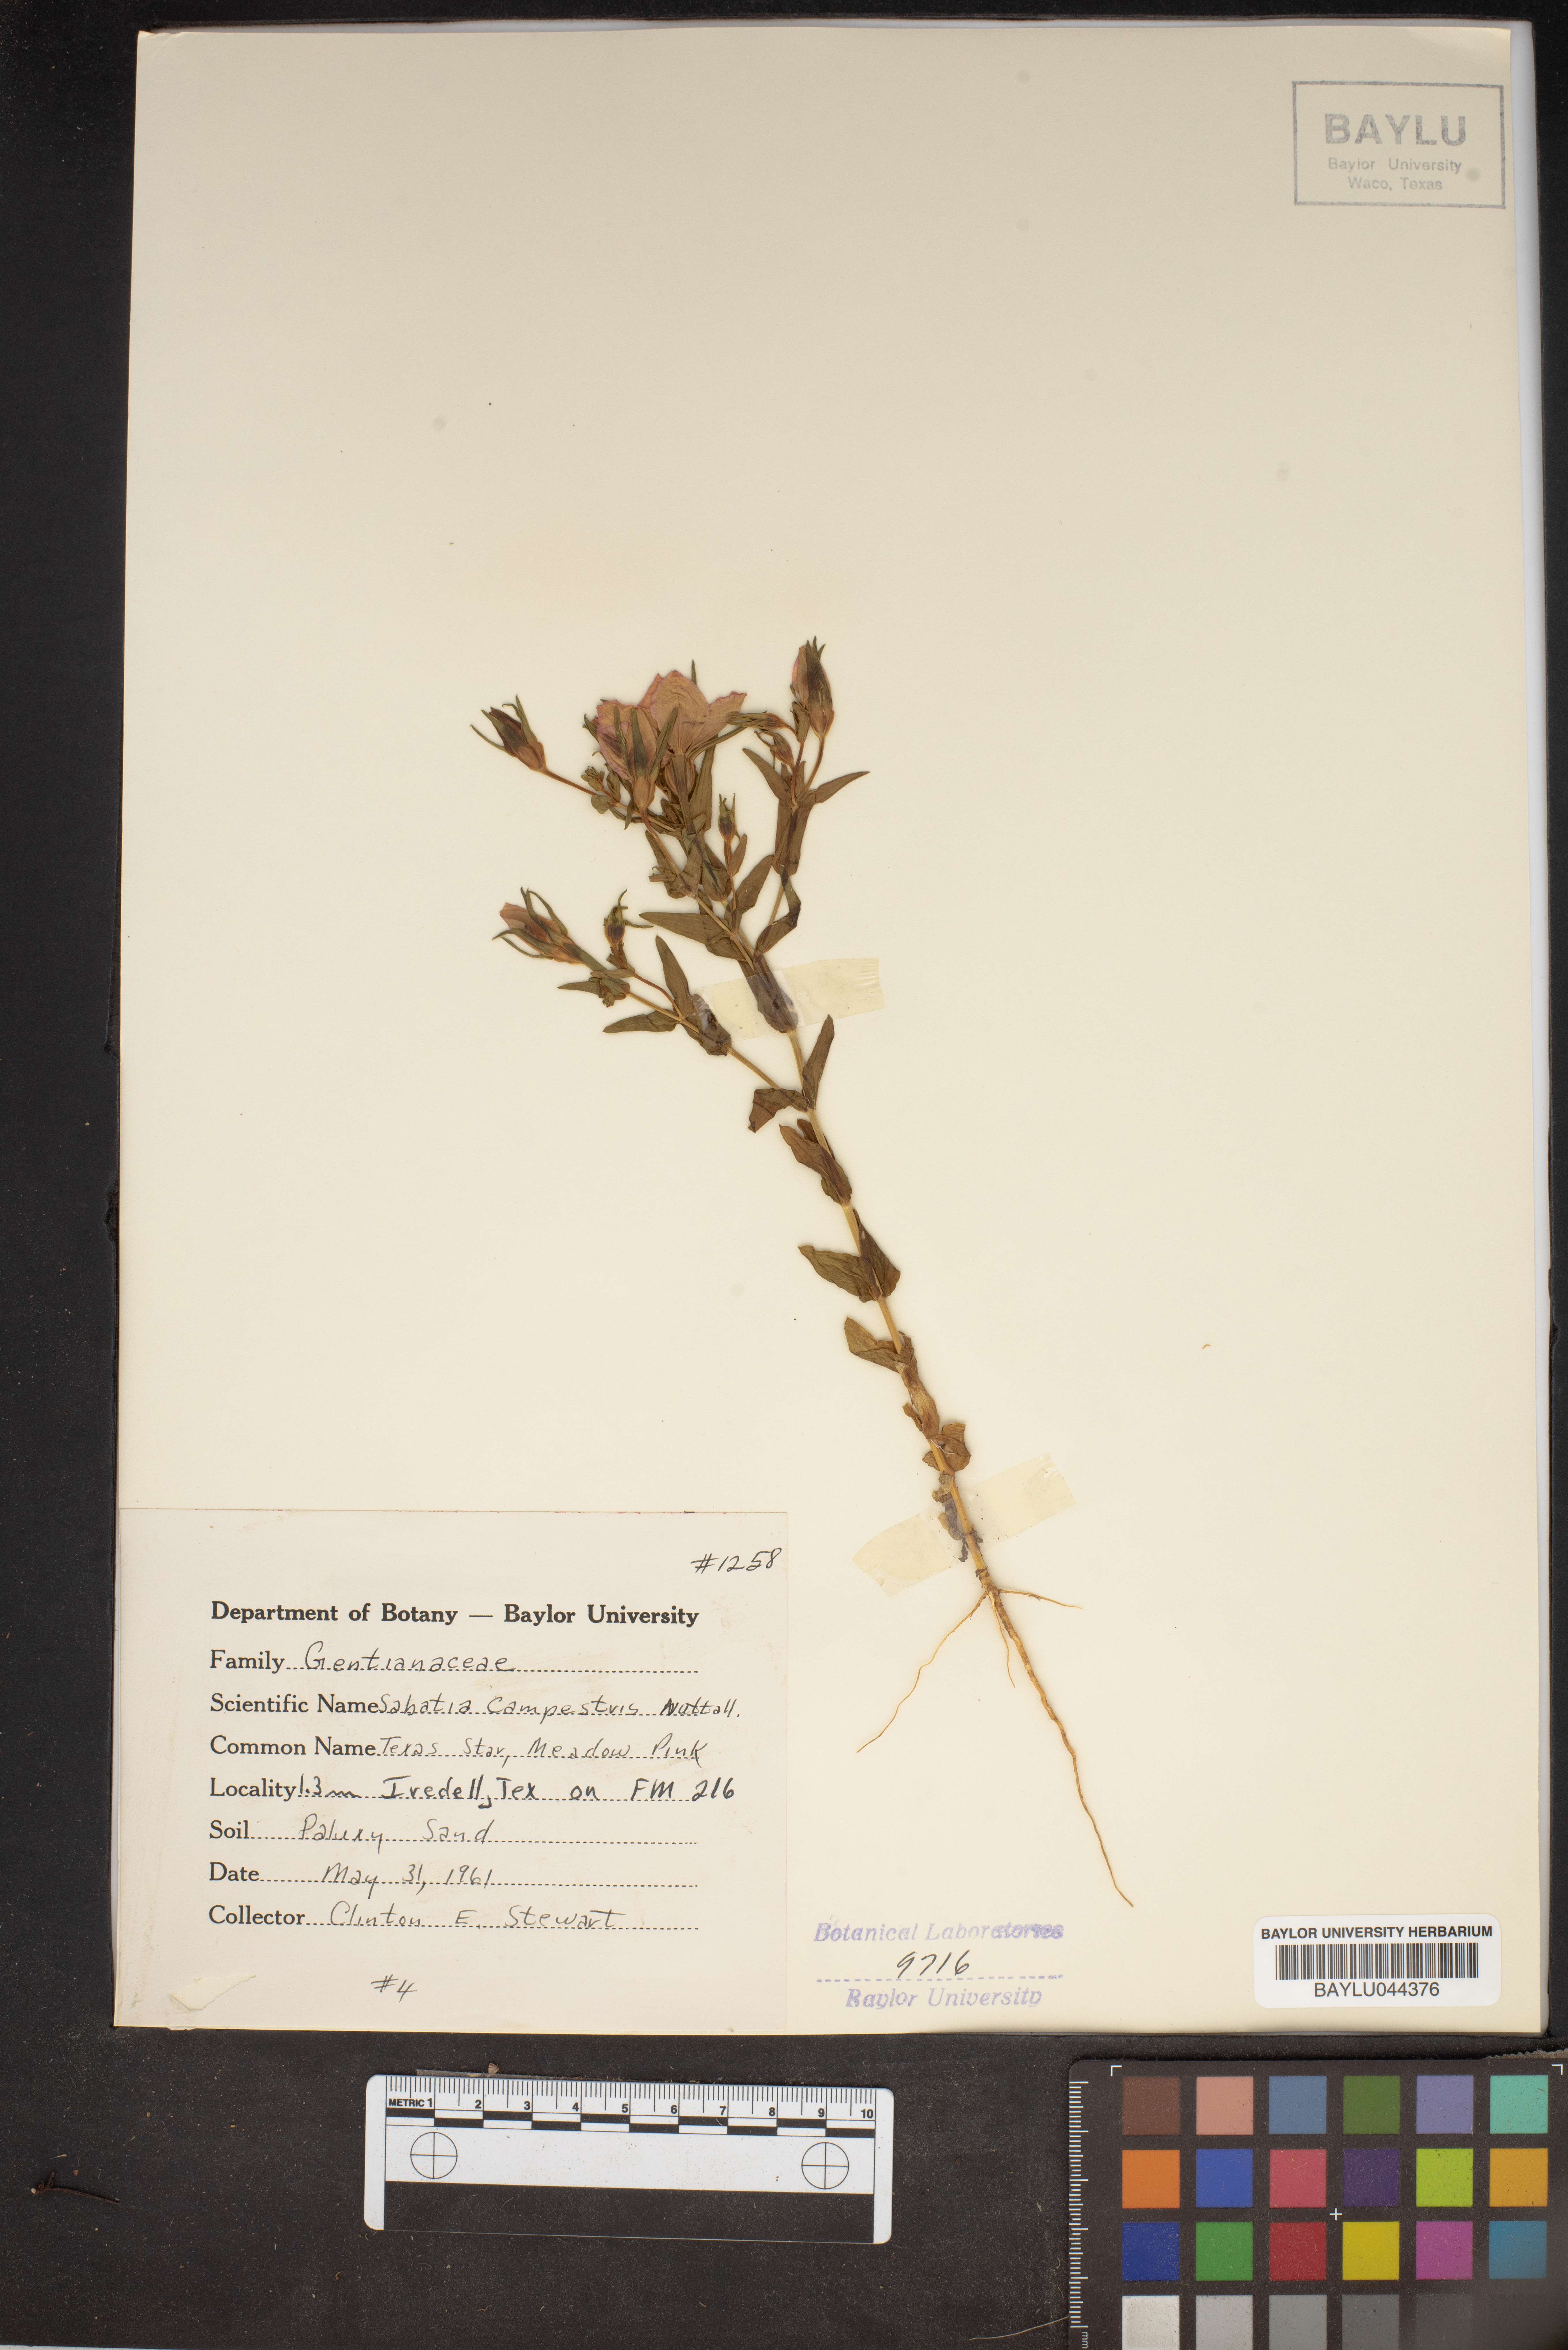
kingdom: Plantae
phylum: Tracheophyta
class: Magnoliopsida
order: Gentianales
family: Gentianaceae
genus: Sabatia
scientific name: Sabatia campestris
